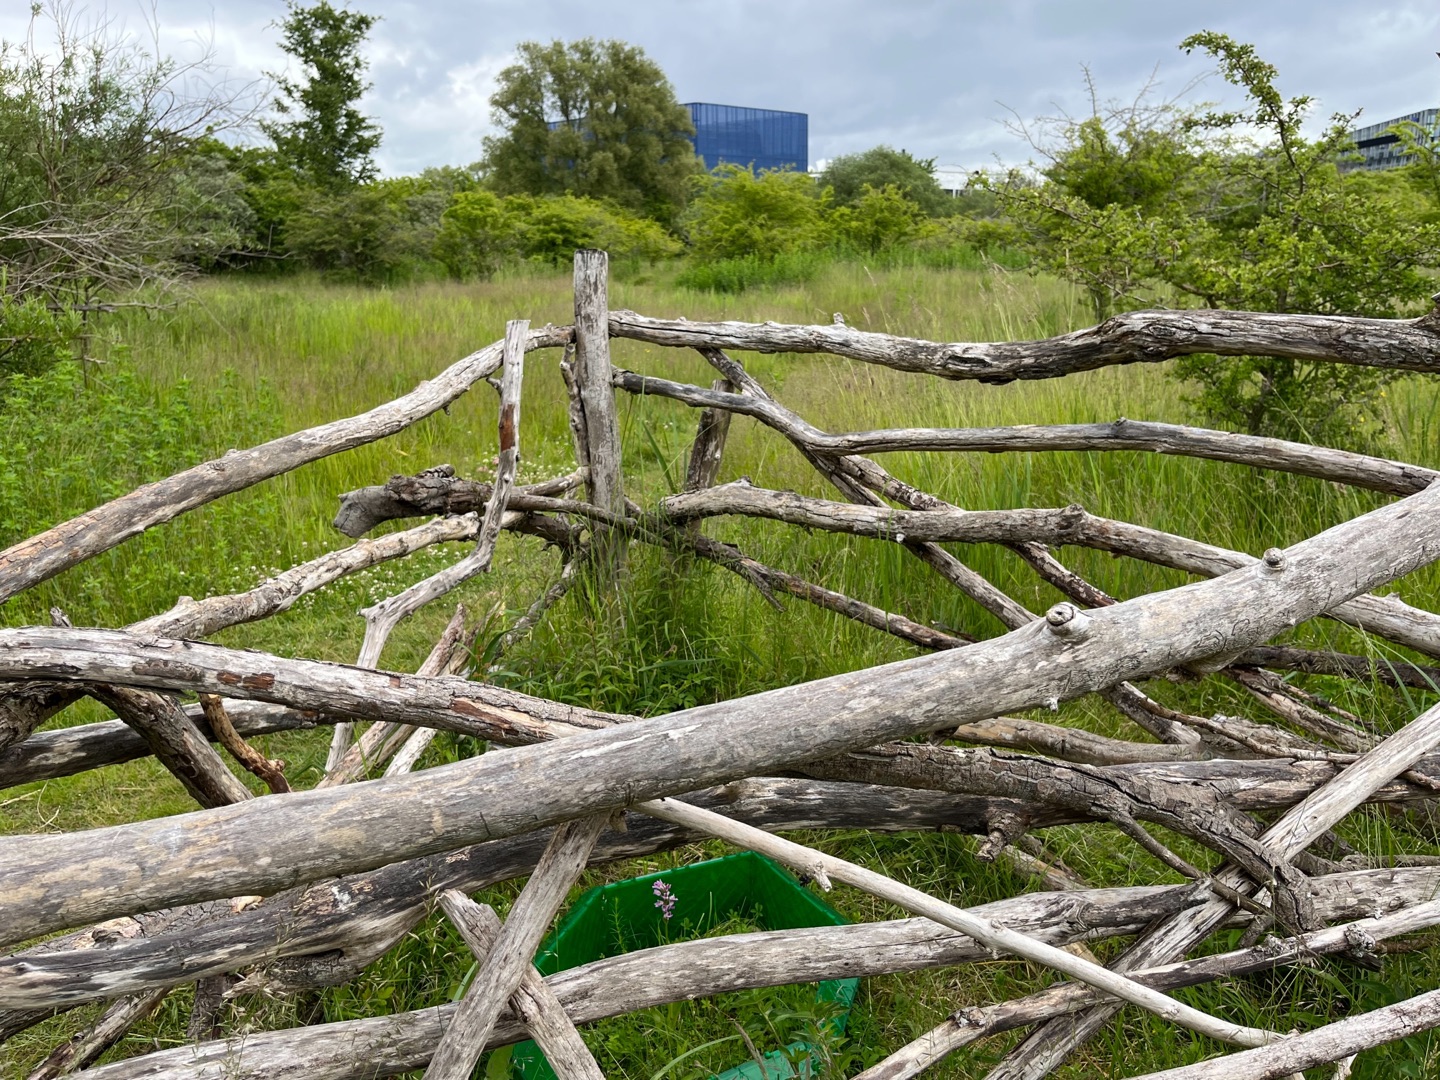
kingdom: Plantae
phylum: Tracheophyta
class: Liliopsida
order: Asparagales
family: Orchidaceae
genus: Orchis
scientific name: Orchis militaris
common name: Ridder-gøgeurt
